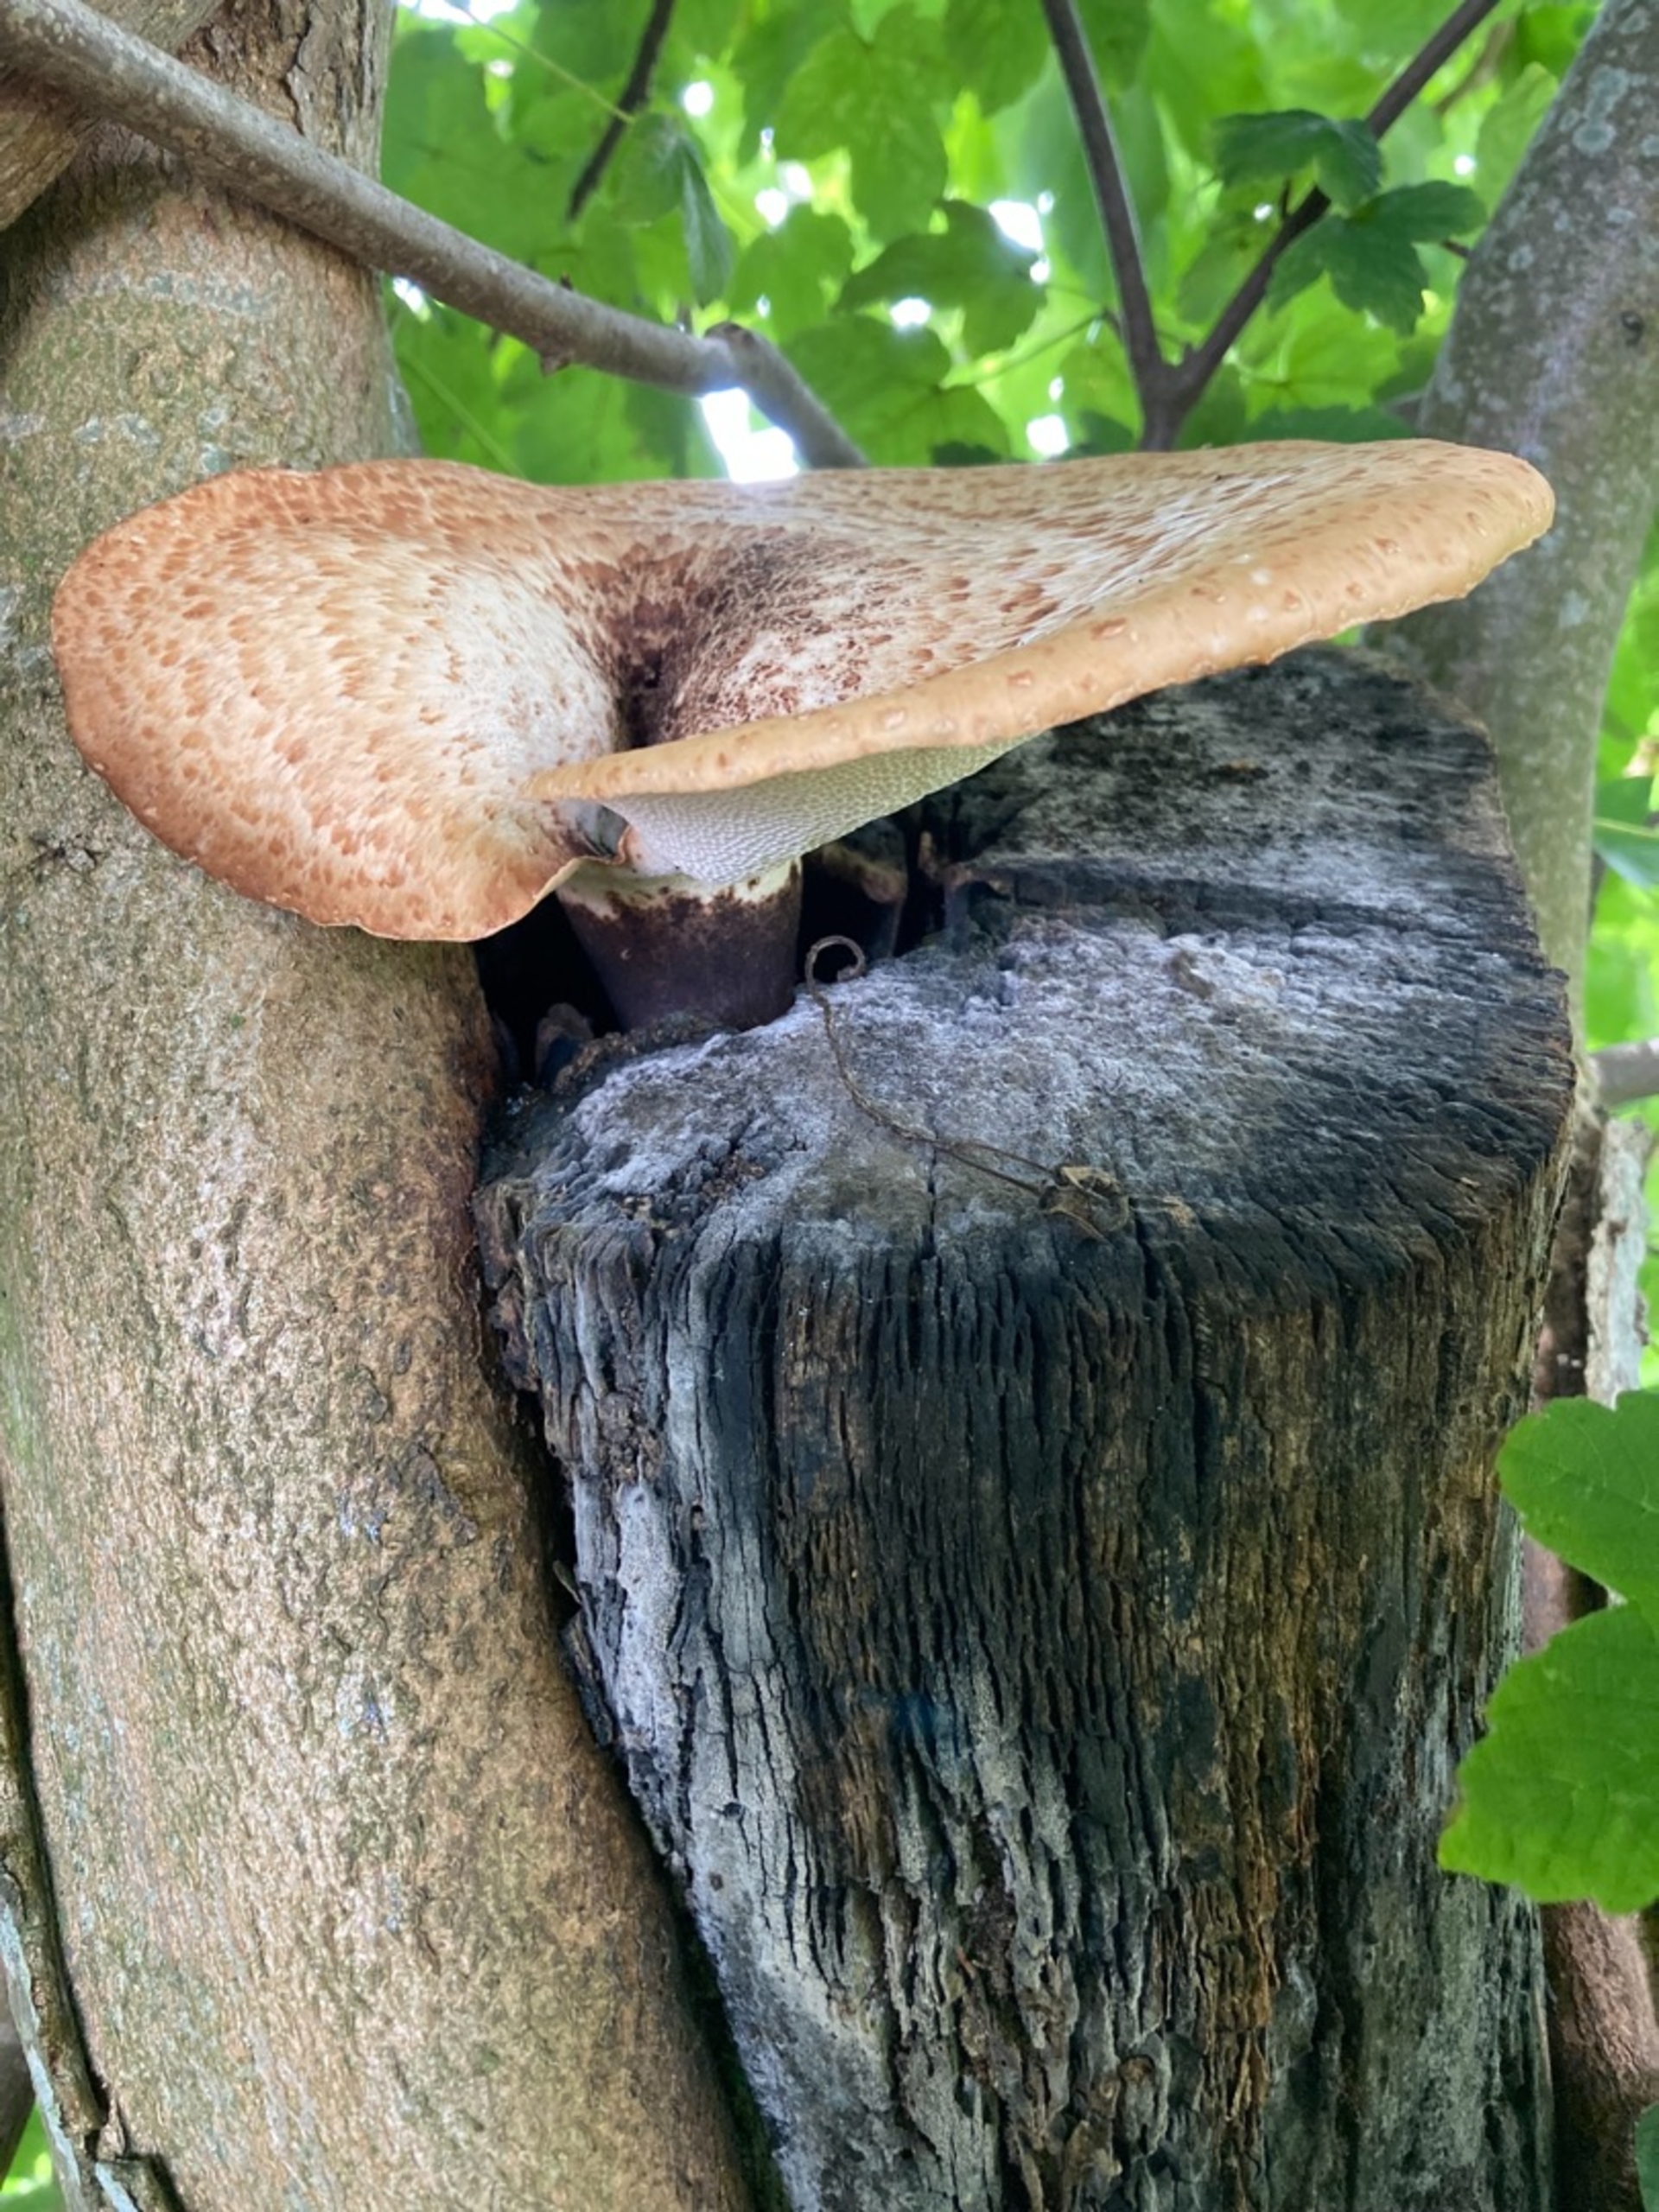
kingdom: Fungi
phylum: Basidiomycota
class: Agaricomycetes
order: Polyporales
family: Polyporaceae
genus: Cerioporus
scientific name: Cerioporus squamosus
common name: Skællet stilkporesvamp
